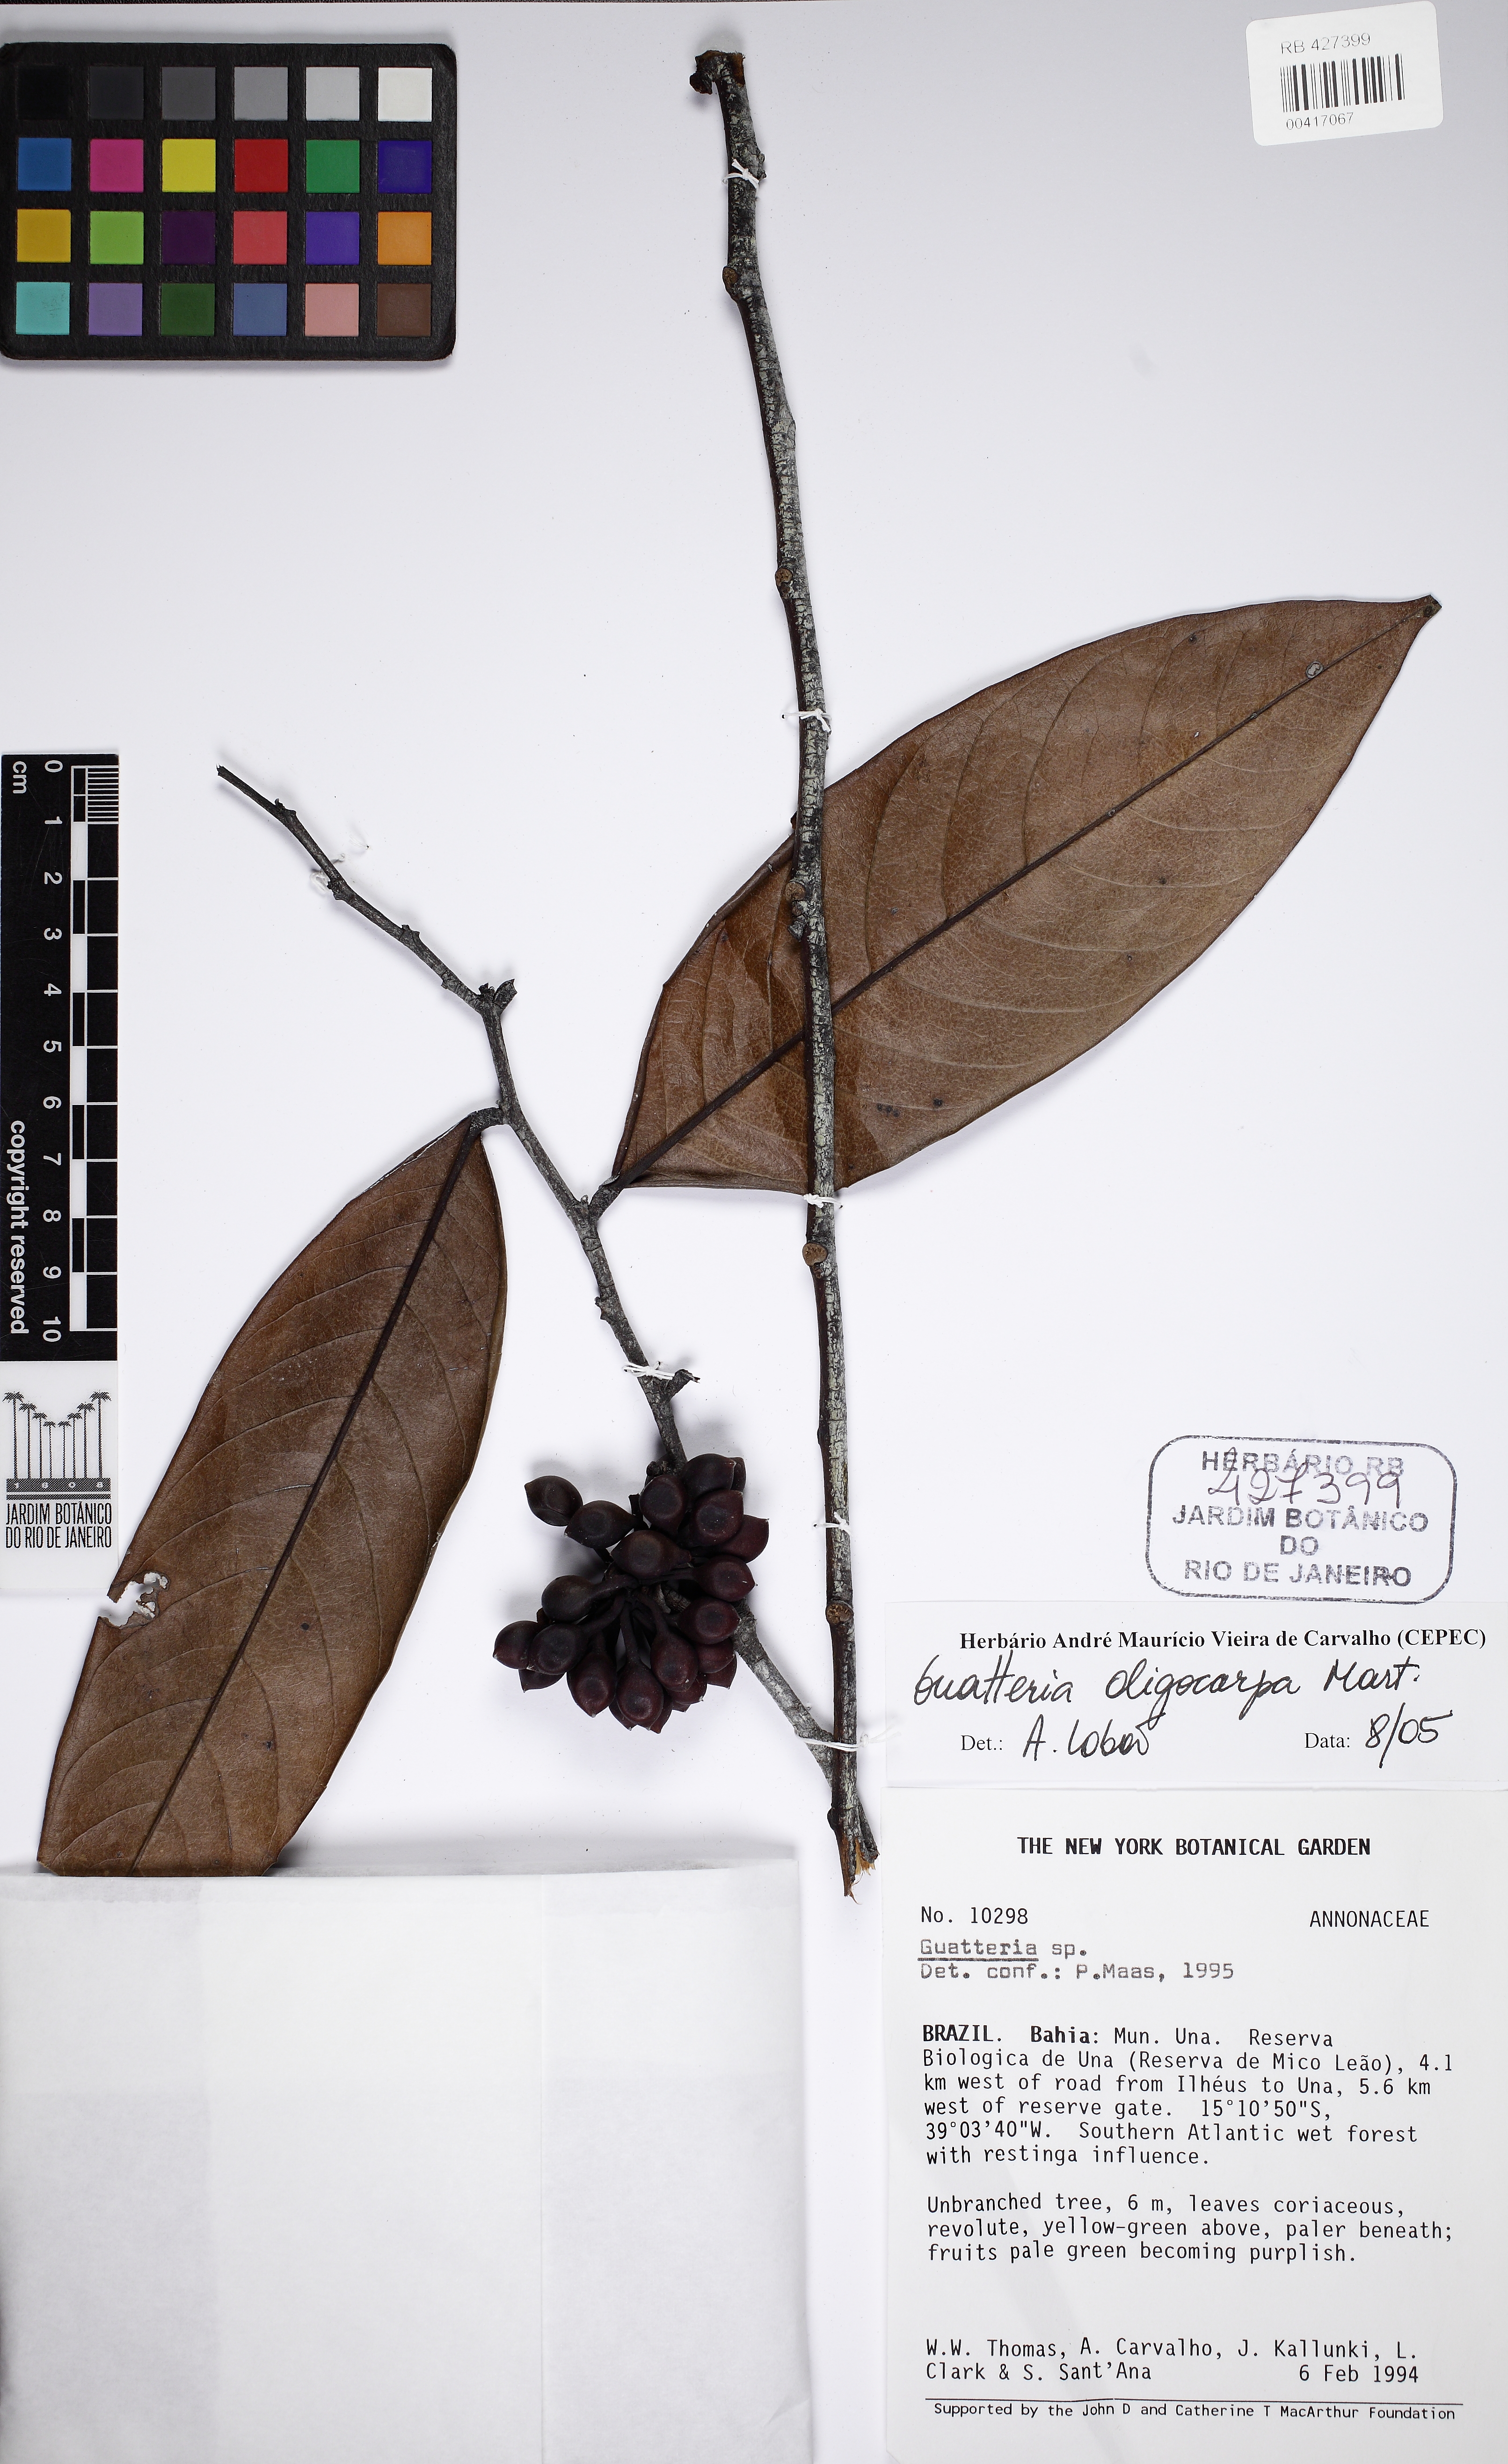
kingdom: Plantae
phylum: Tracheophyta
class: Magnoliopsida
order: Magnoliales
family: Annonaceae
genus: Guatteria
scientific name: Guatteria oligocarpa
